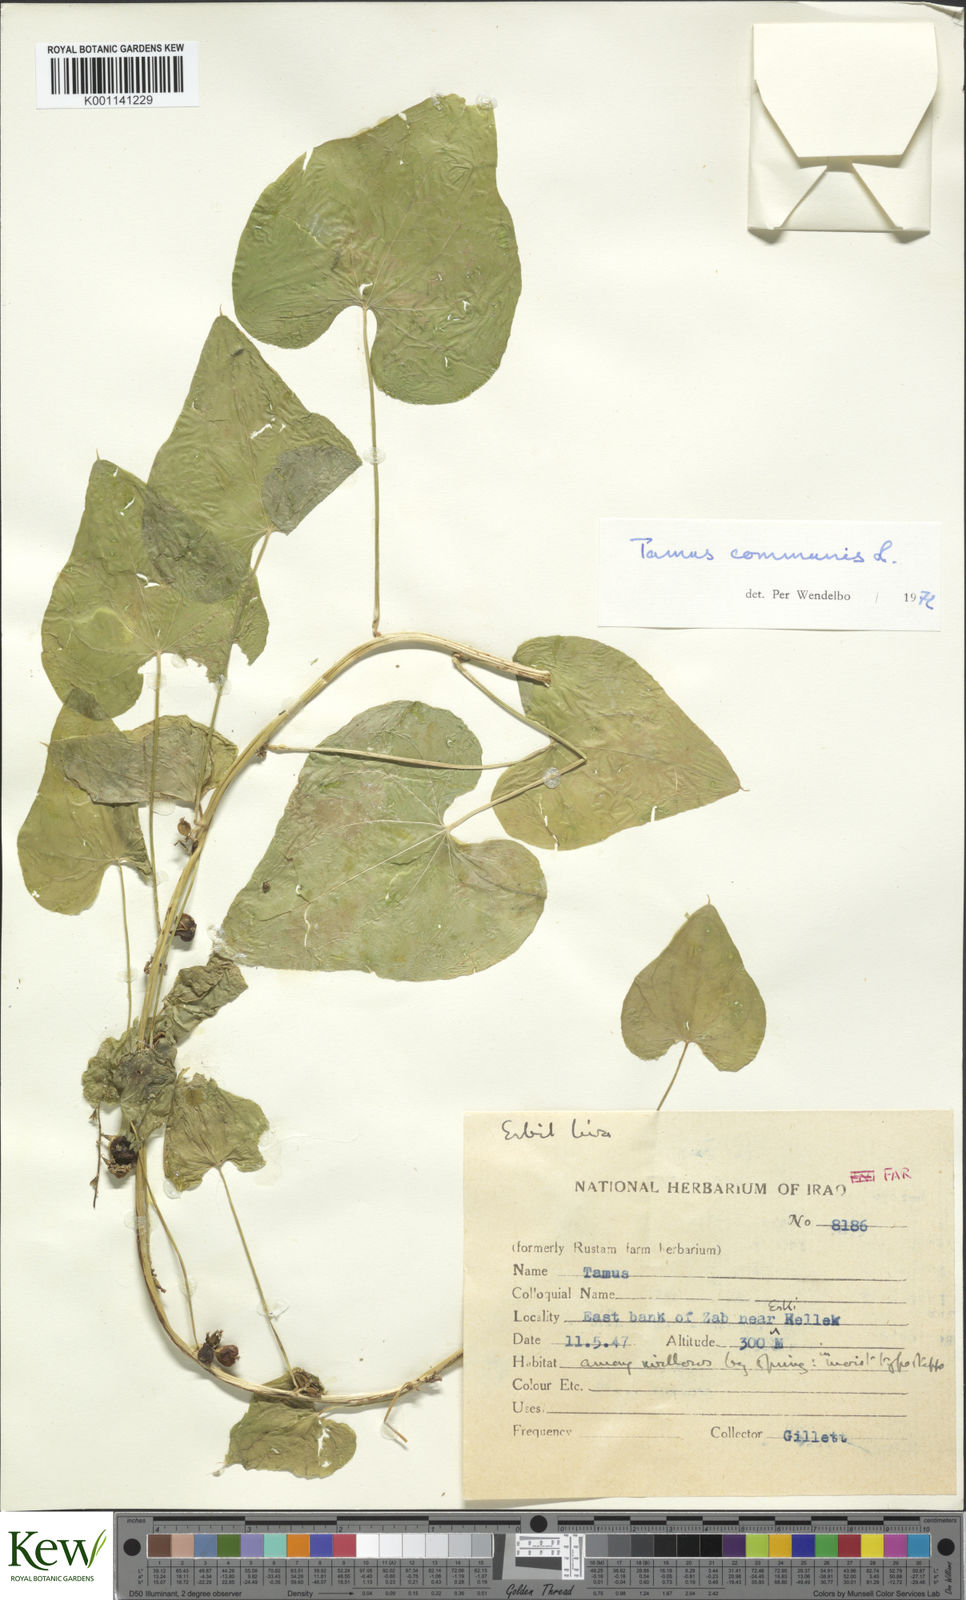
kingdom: Plantae
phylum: Tracheophyta
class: Liliopsida
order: Dioscoreales
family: Dioscoreaceae
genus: Dioscorea
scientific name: Dioscorea communis
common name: Black-bindweed
